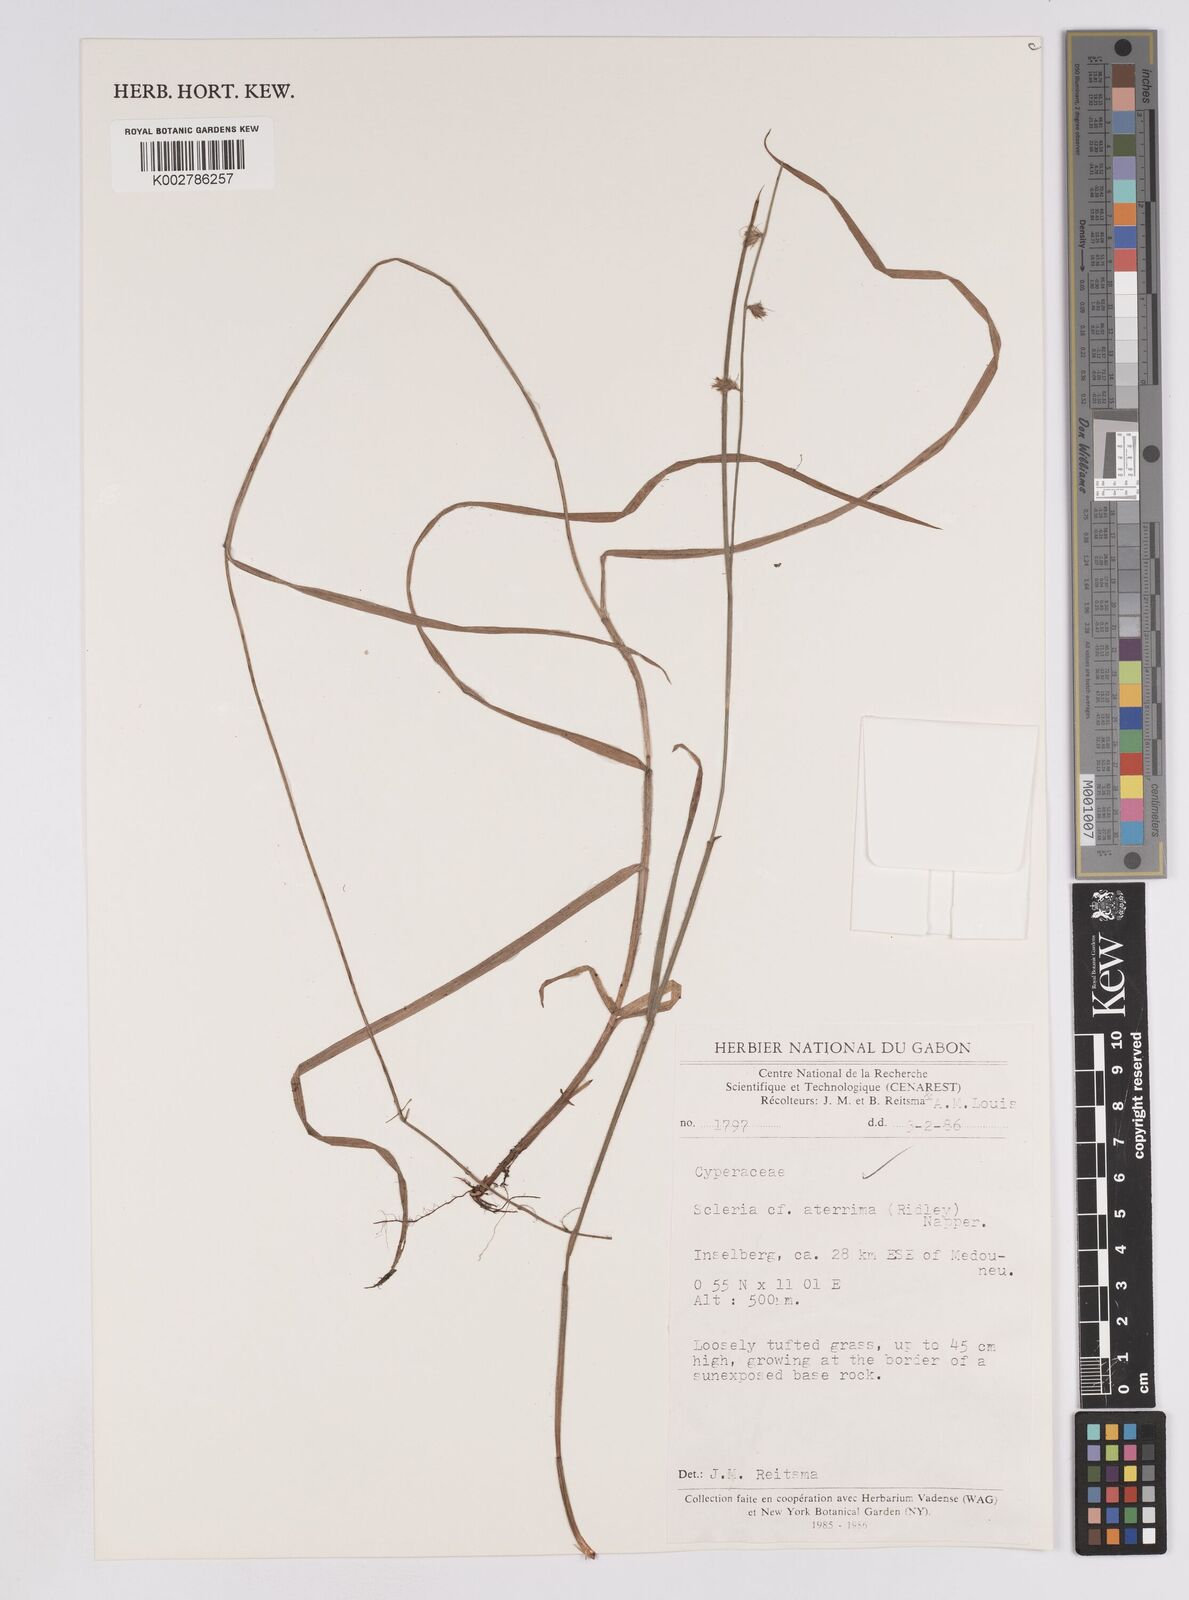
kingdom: Plantae
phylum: Tracheophyta
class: Liliopsida
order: Poales
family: Cyperaceae
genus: Scleria
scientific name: Scleria catophylla
